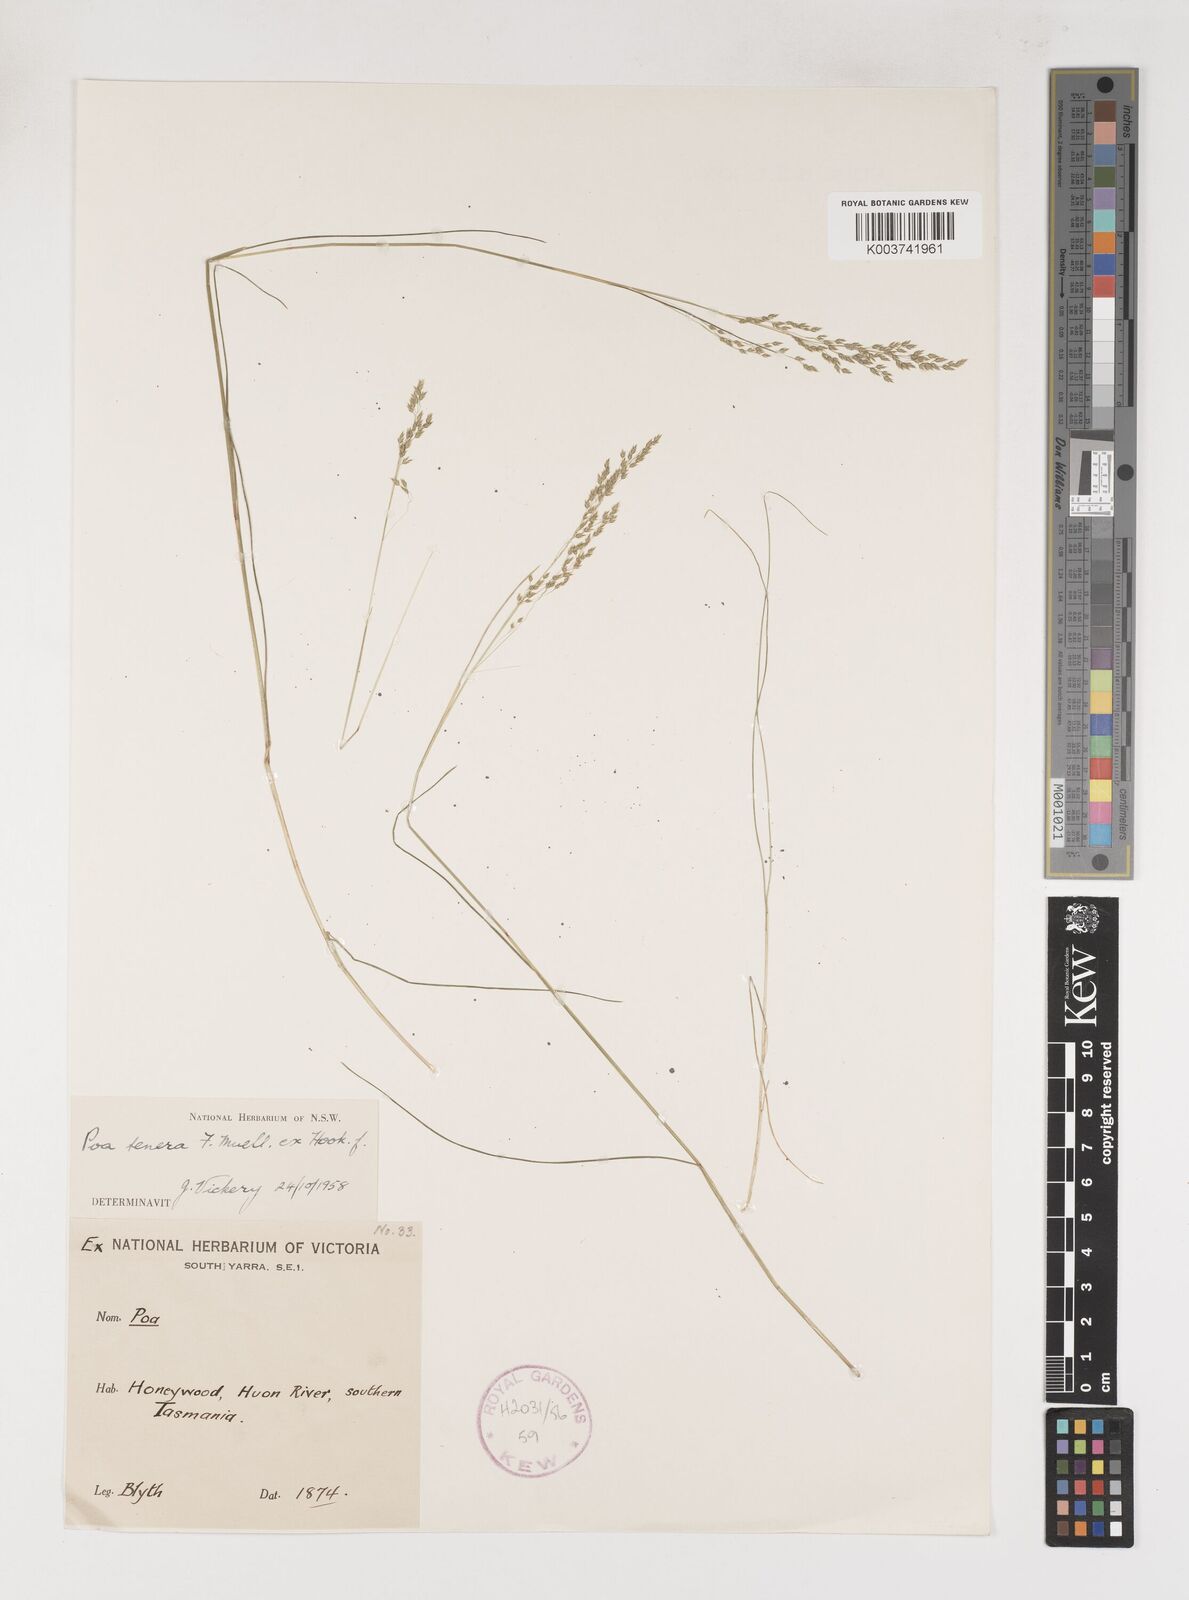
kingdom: Plantae
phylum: Tracheophyta
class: Liliopsida
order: Poales
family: Poaceae
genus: Poa
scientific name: Poa tenera
